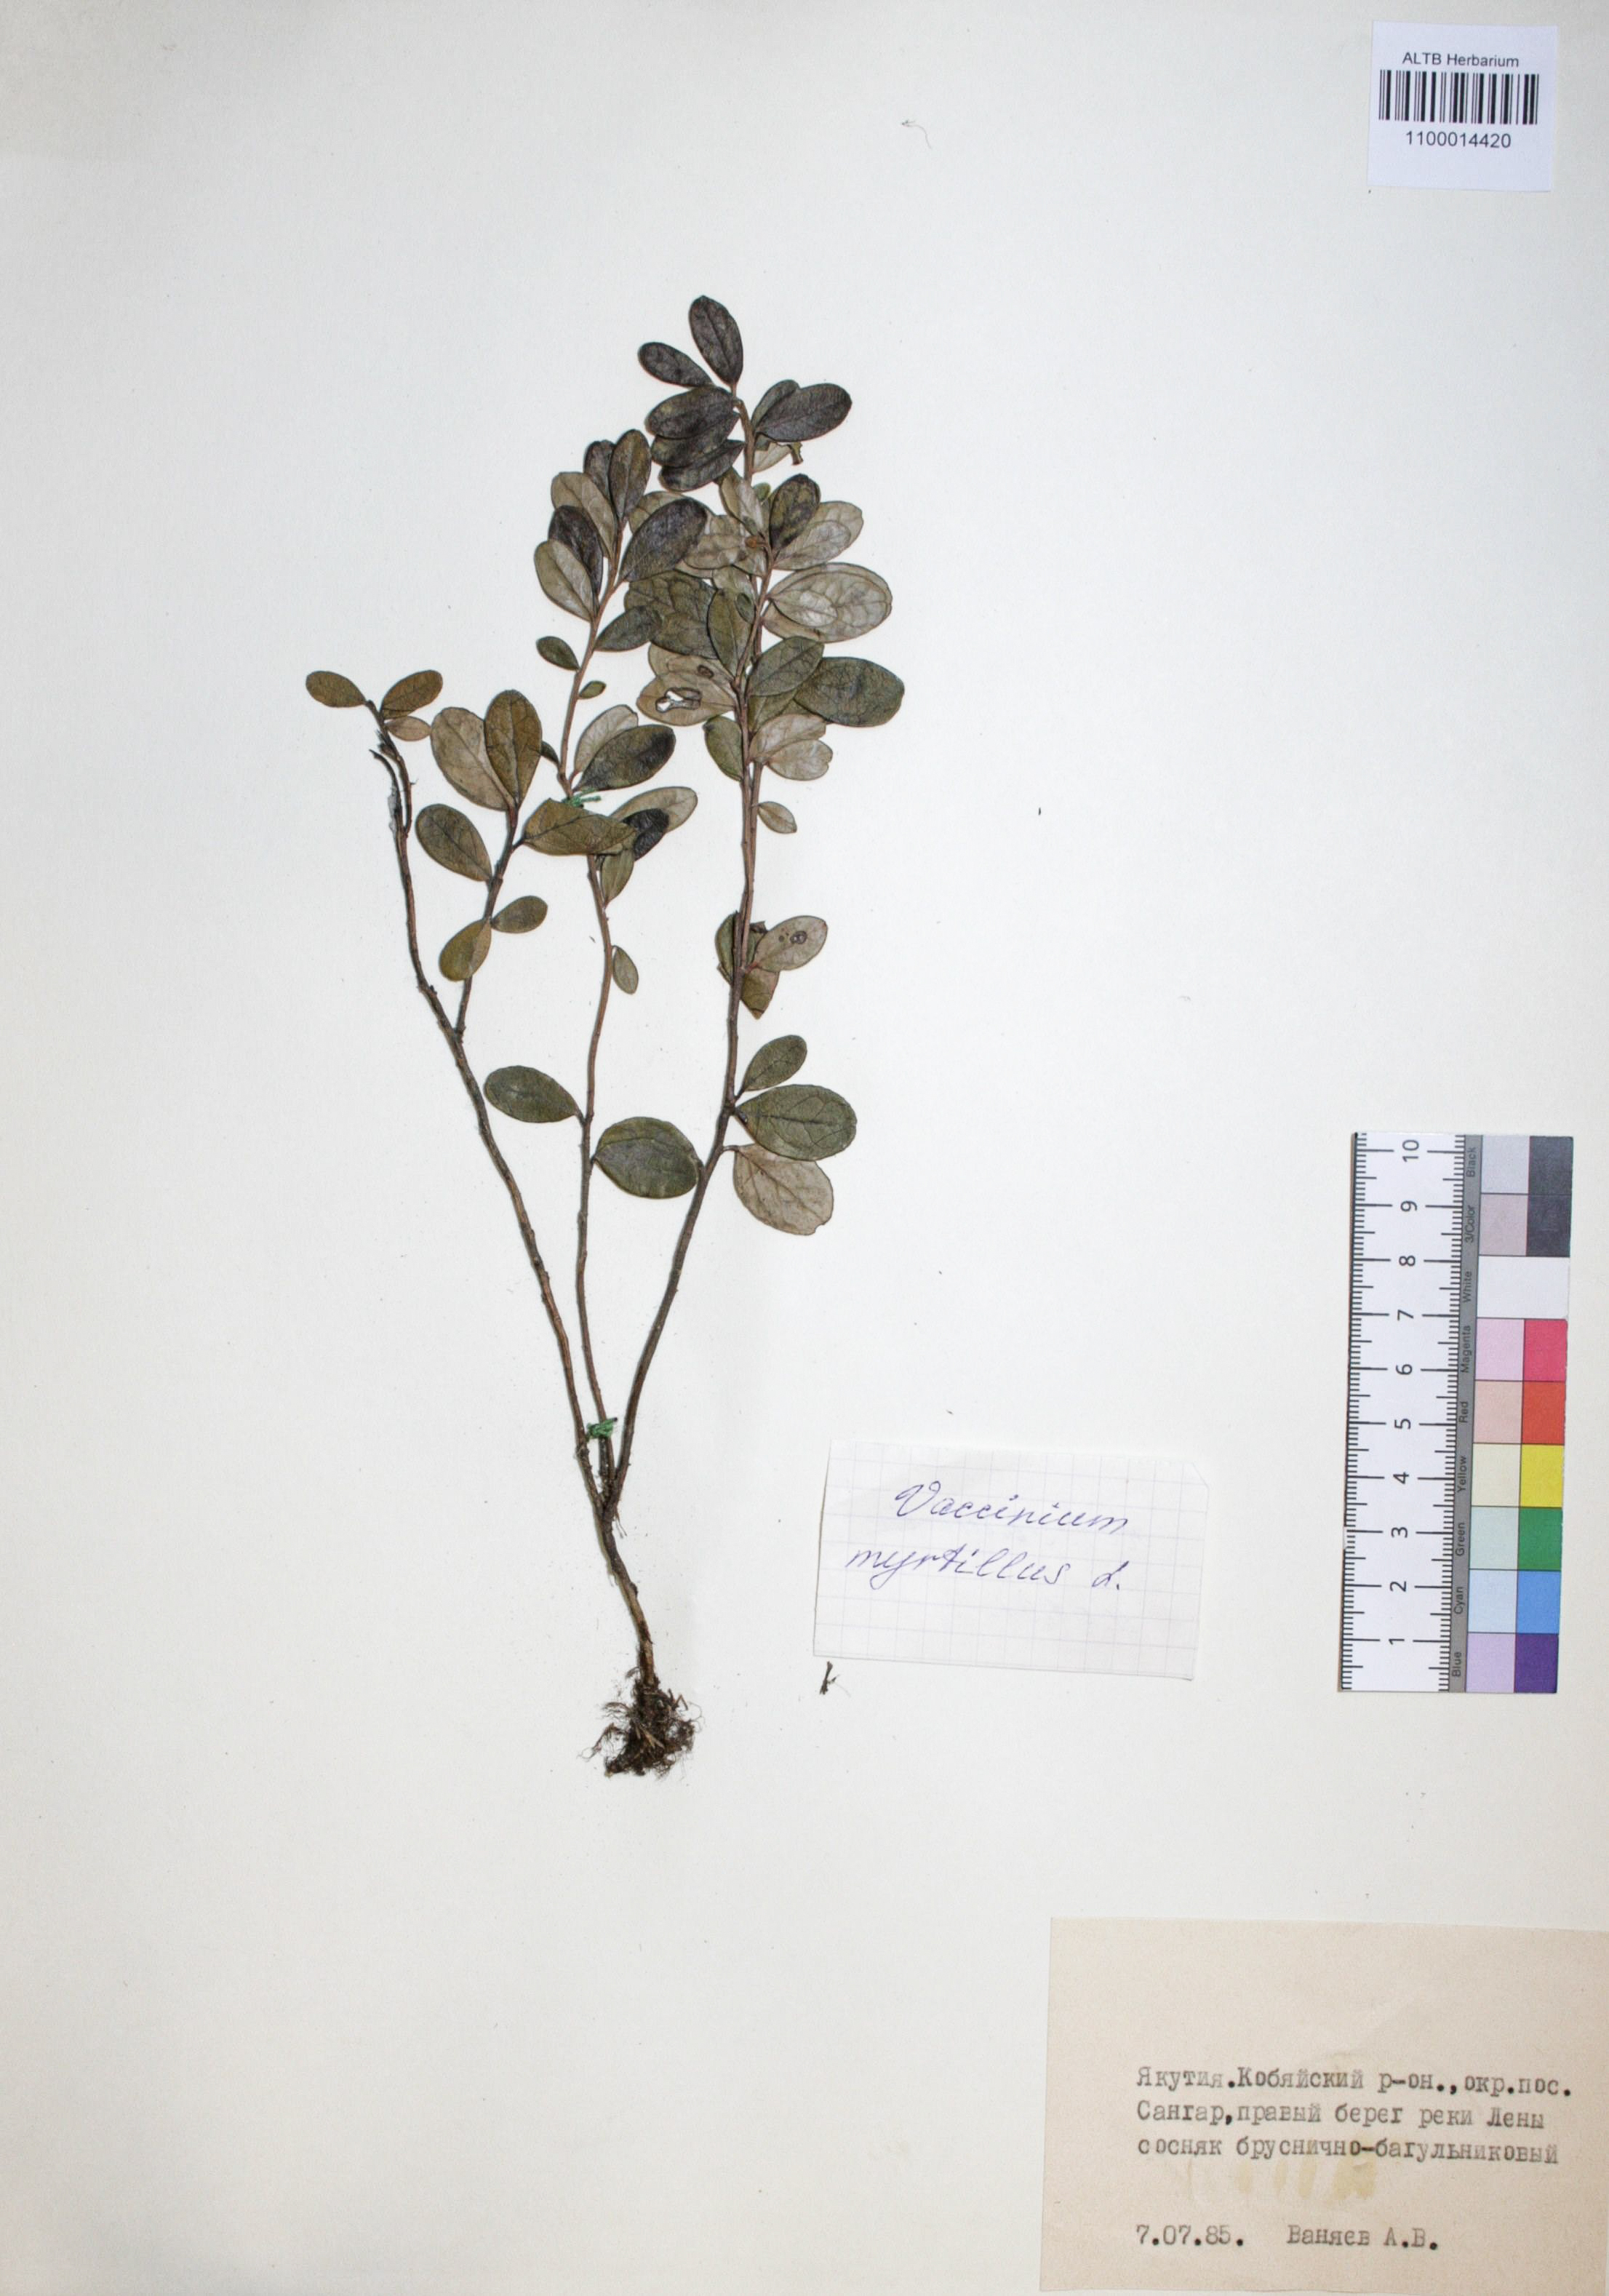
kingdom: Plantae
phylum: Tracheophyta
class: Magnoliopsida
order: Ericales
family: Ericaceae
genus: Vaccinium
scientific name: Vaccinium myrtillus
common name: Bilberry
